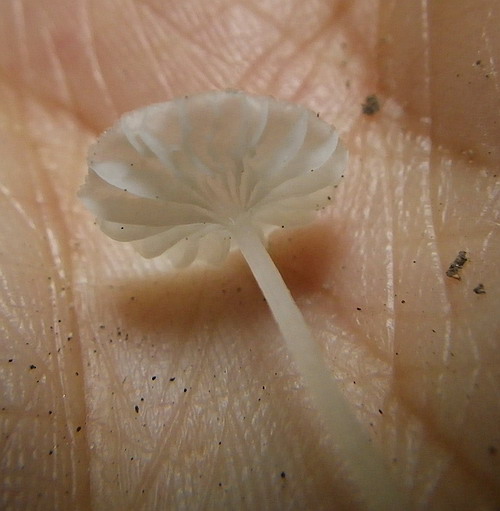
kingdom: Fungi
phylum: Basidiomycota
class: Agaricomycetes
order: Agaricales
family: Tricholomataceae
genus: Delicatula
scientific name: Delicatula integrella
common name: slørhuesvamp
